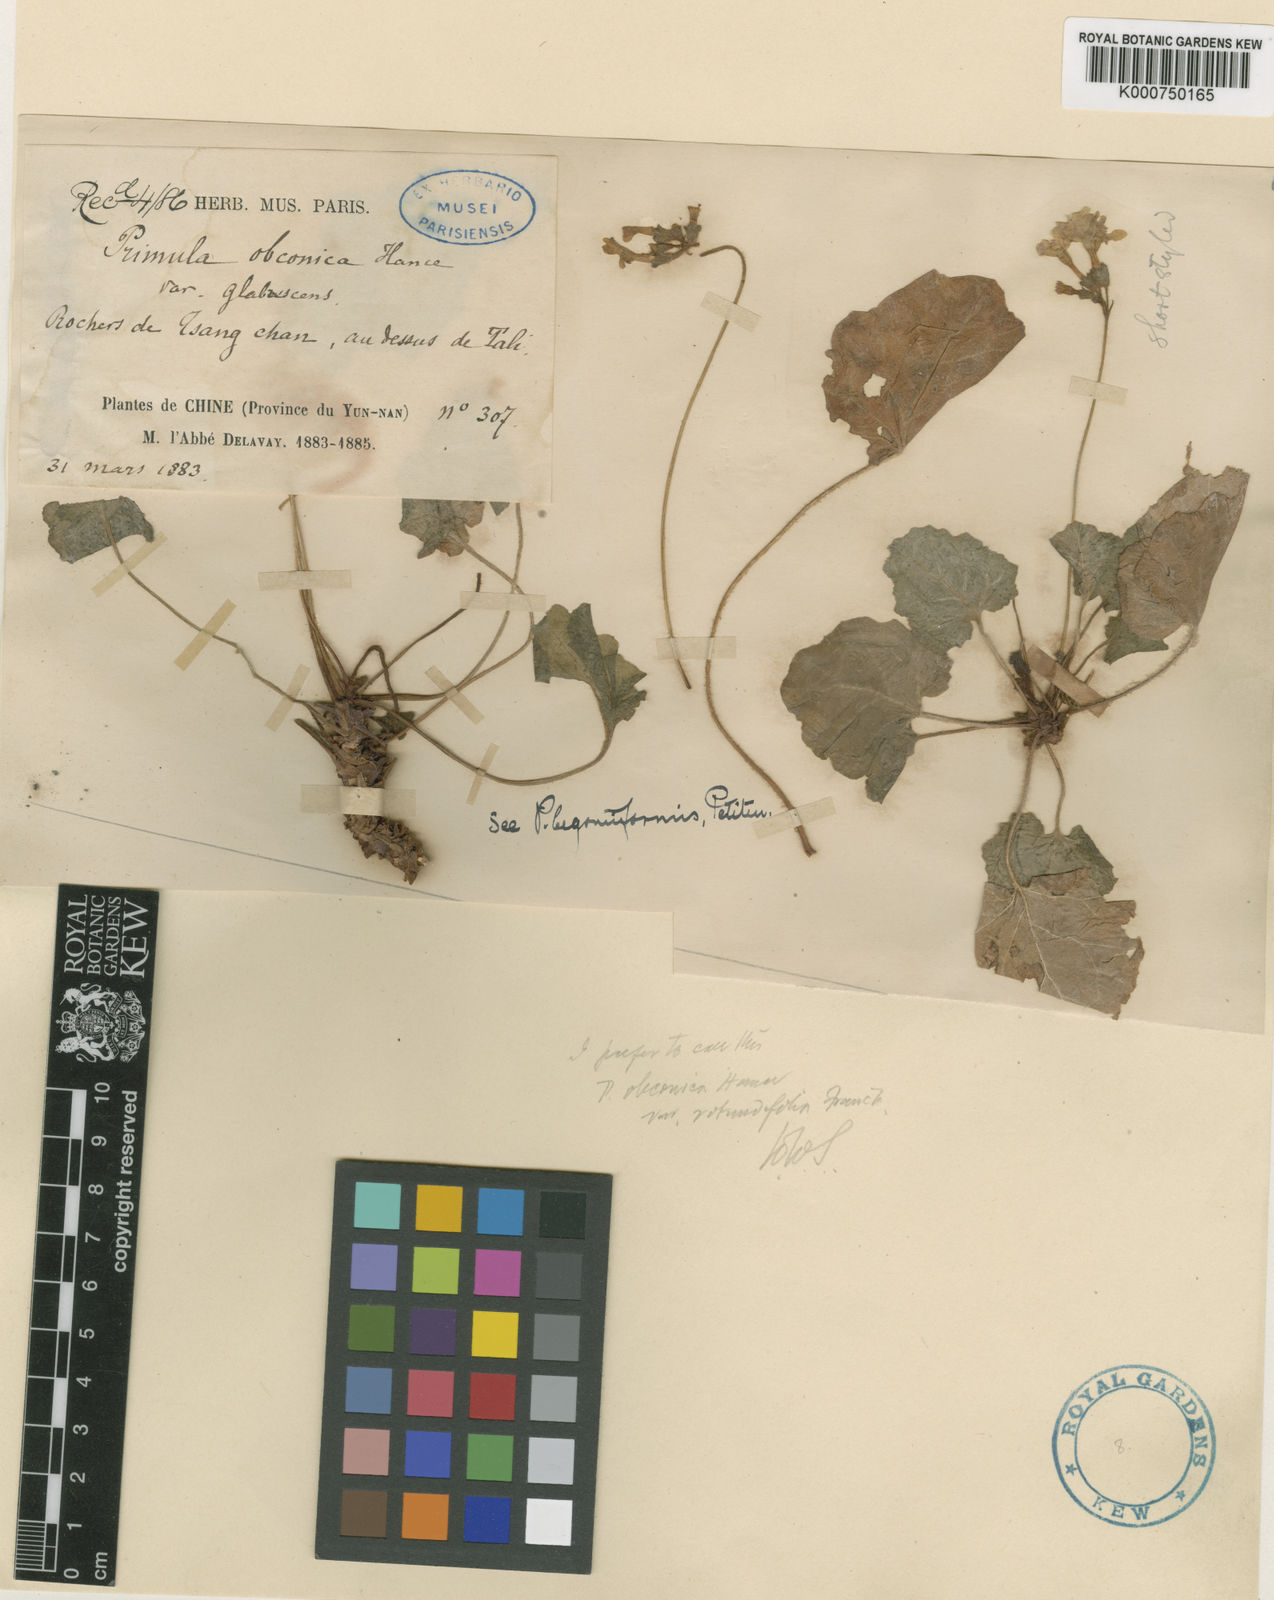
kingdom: Plantae
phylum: Tracheophyta
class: Magnoliopsida
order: Ericales
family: Primulaceae
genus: Primula
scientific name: Primula obconica
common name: German primrose
